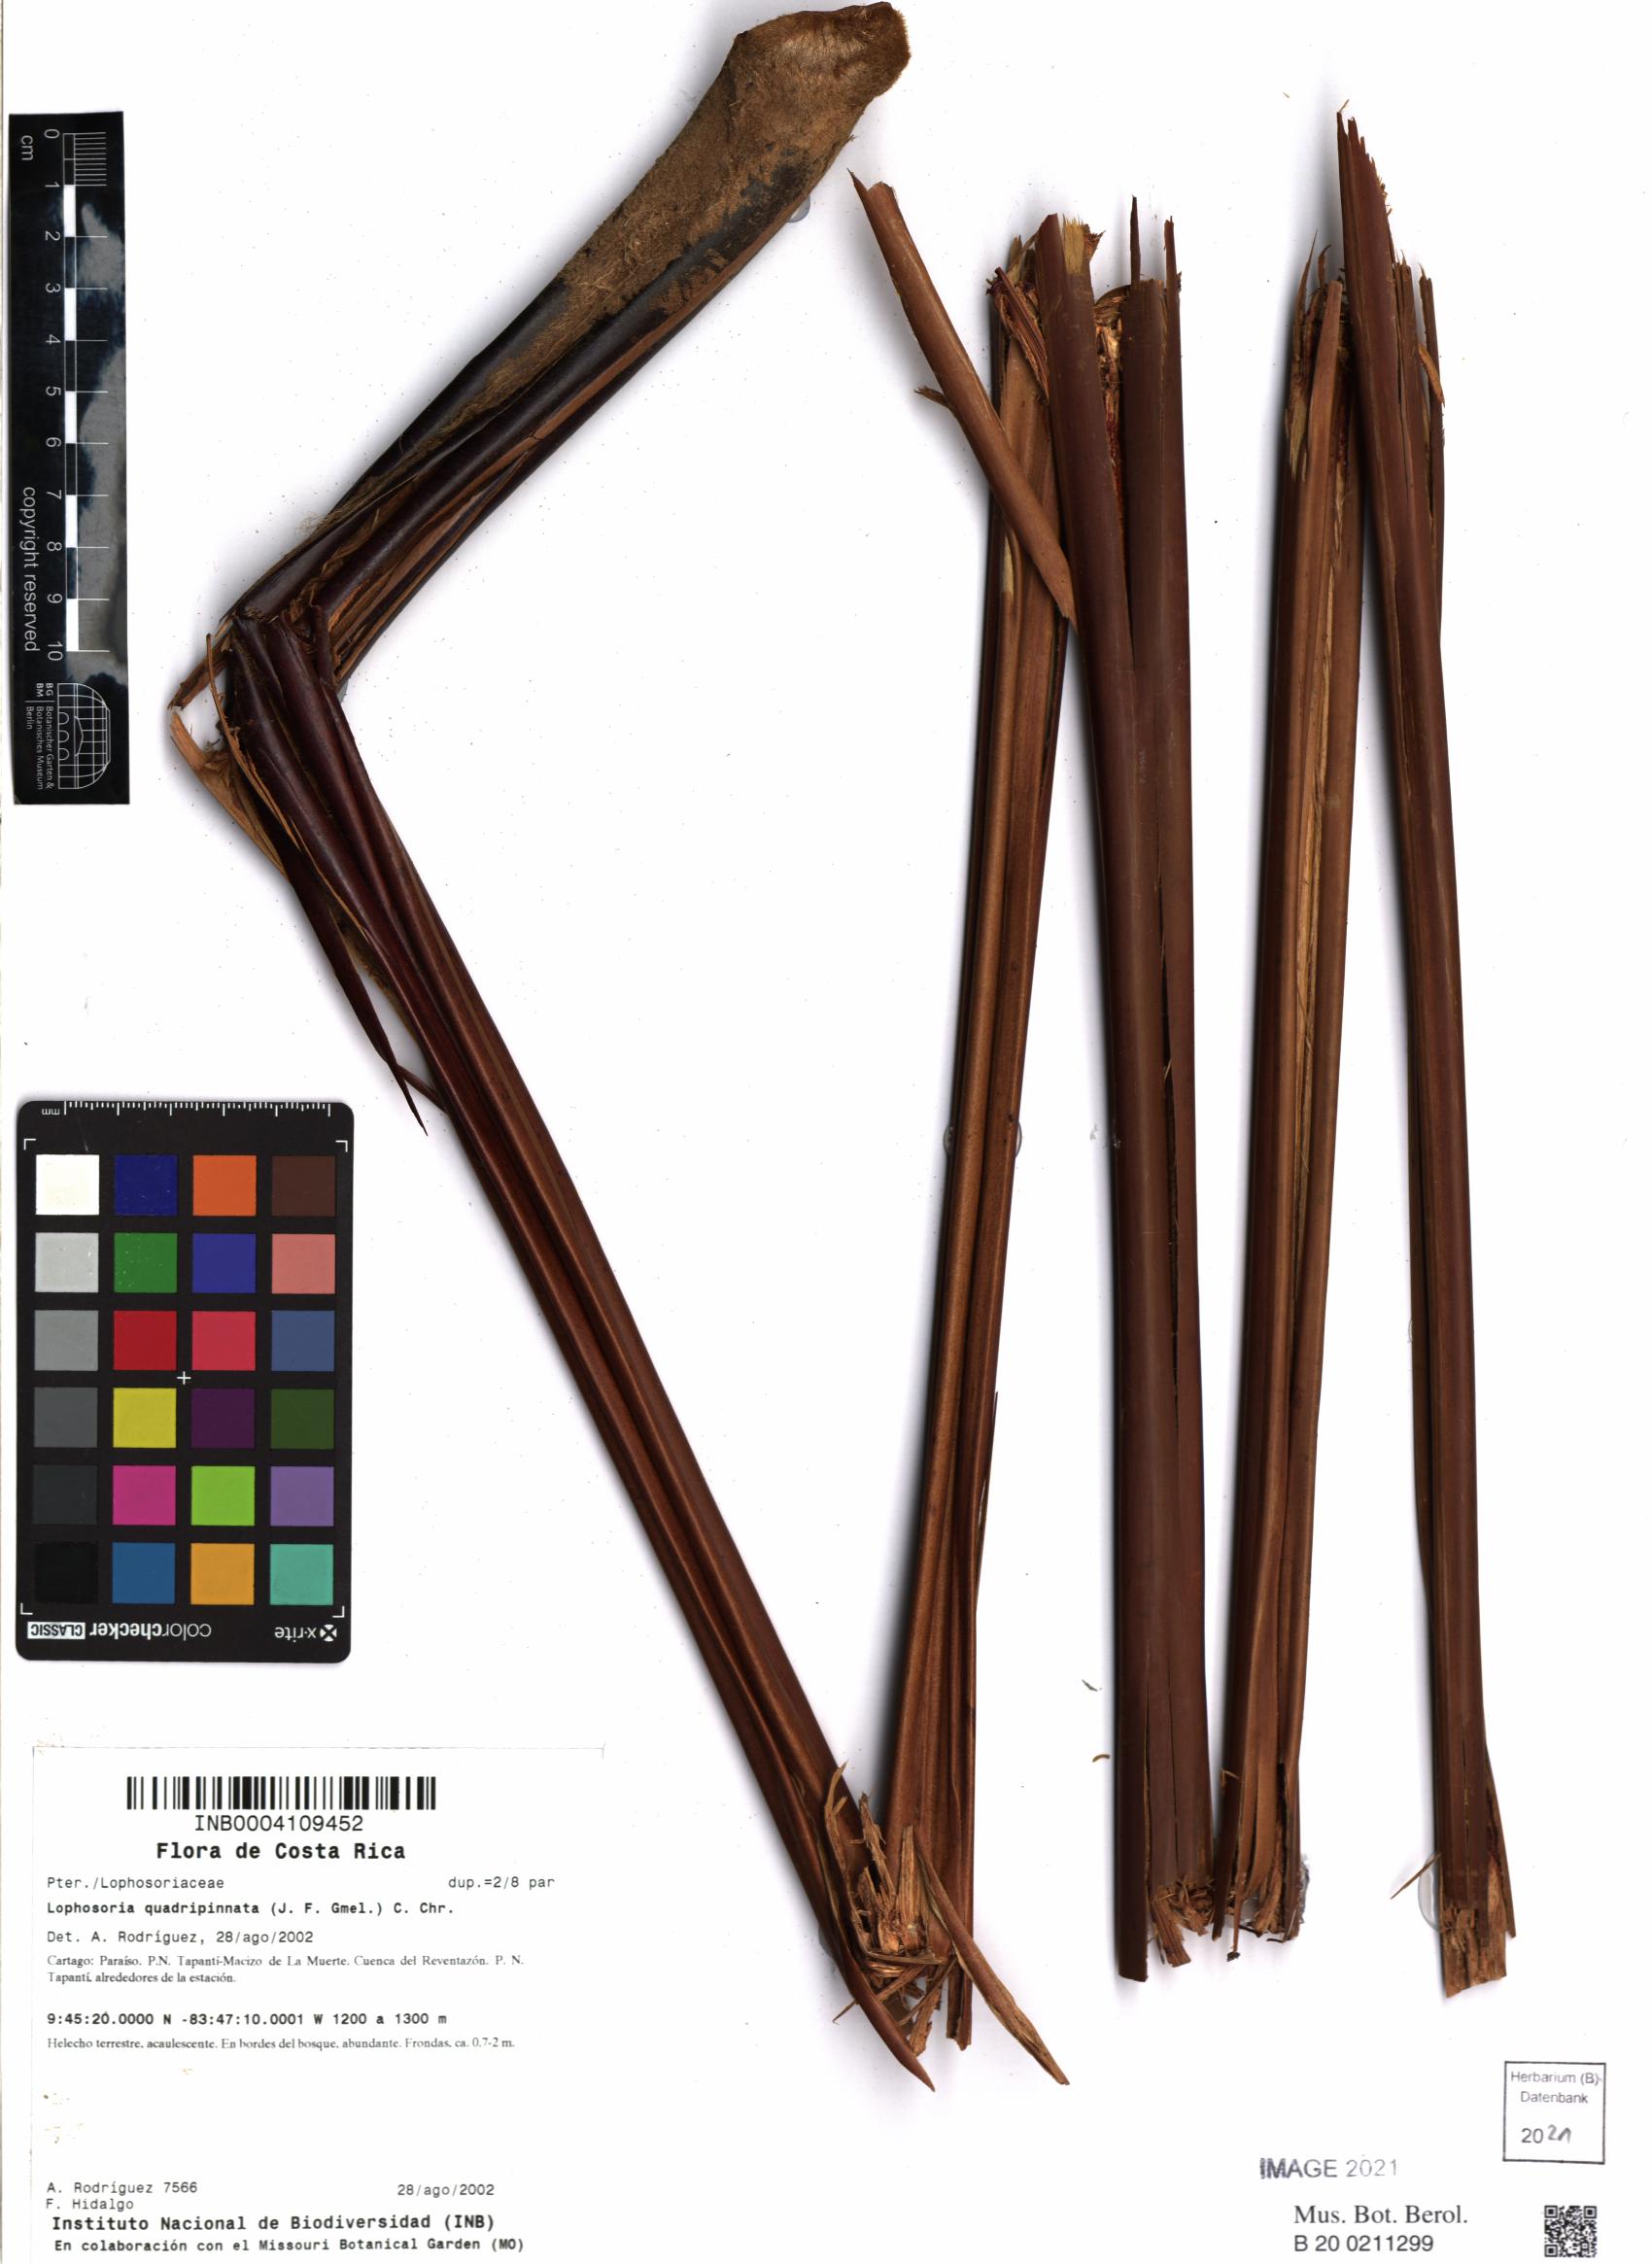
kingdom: Plantae
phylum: Tracheophyta
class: Polypodiopsida
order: Cyatheales
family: Dicksoniaceae
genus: Lophosoria
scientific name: Lophosoria quadripinnata
